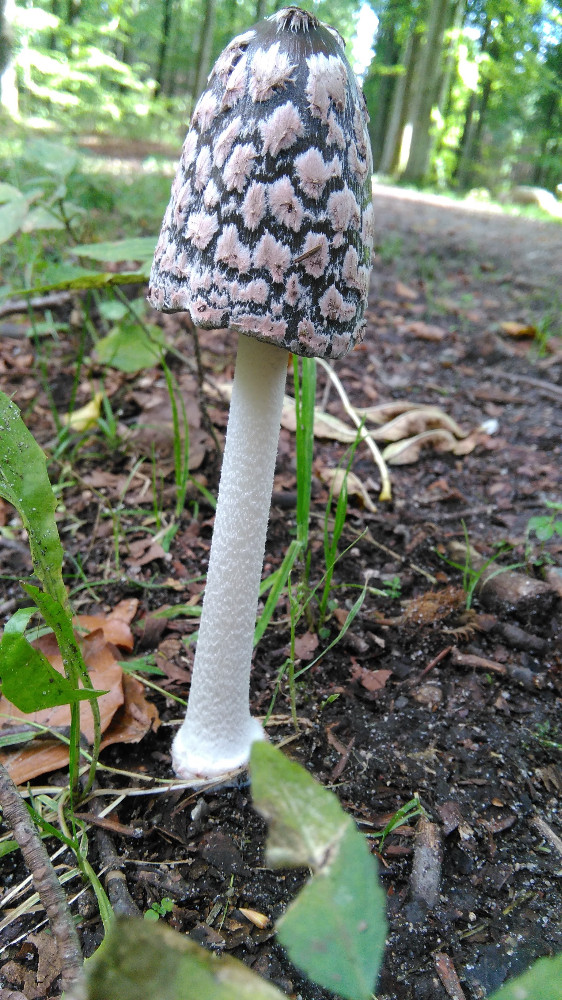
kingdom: Fungi
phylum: Basidiomycota
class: Agaricomycetes
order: Agaricales
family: Psathyrellaceae
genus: Coprinopsis
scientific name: Coprinopsis picacea
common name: skade-blækhat
